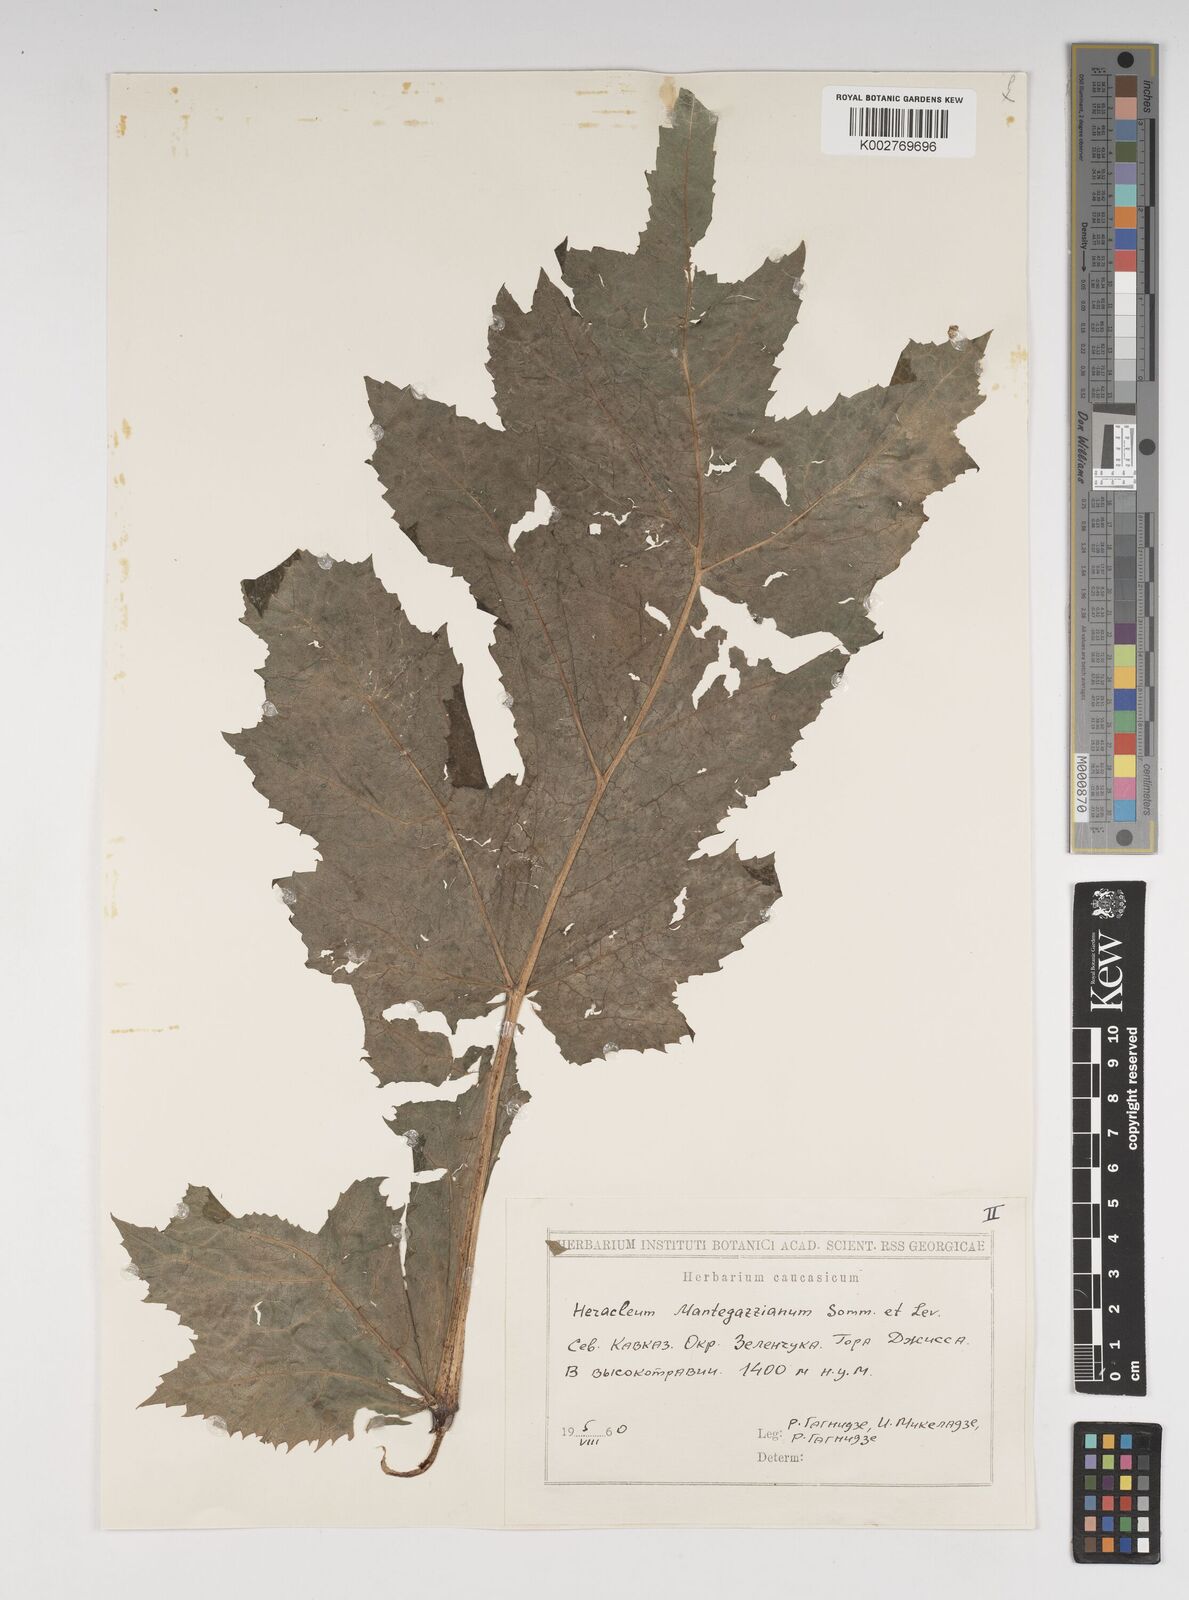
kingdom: Plantae
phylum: Tracheophyta
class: Magnoliopsida
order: Apiales
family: Apiaceae
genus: Heracleum
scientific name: Heracleum mantegazzianum
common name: Giant hogweed
